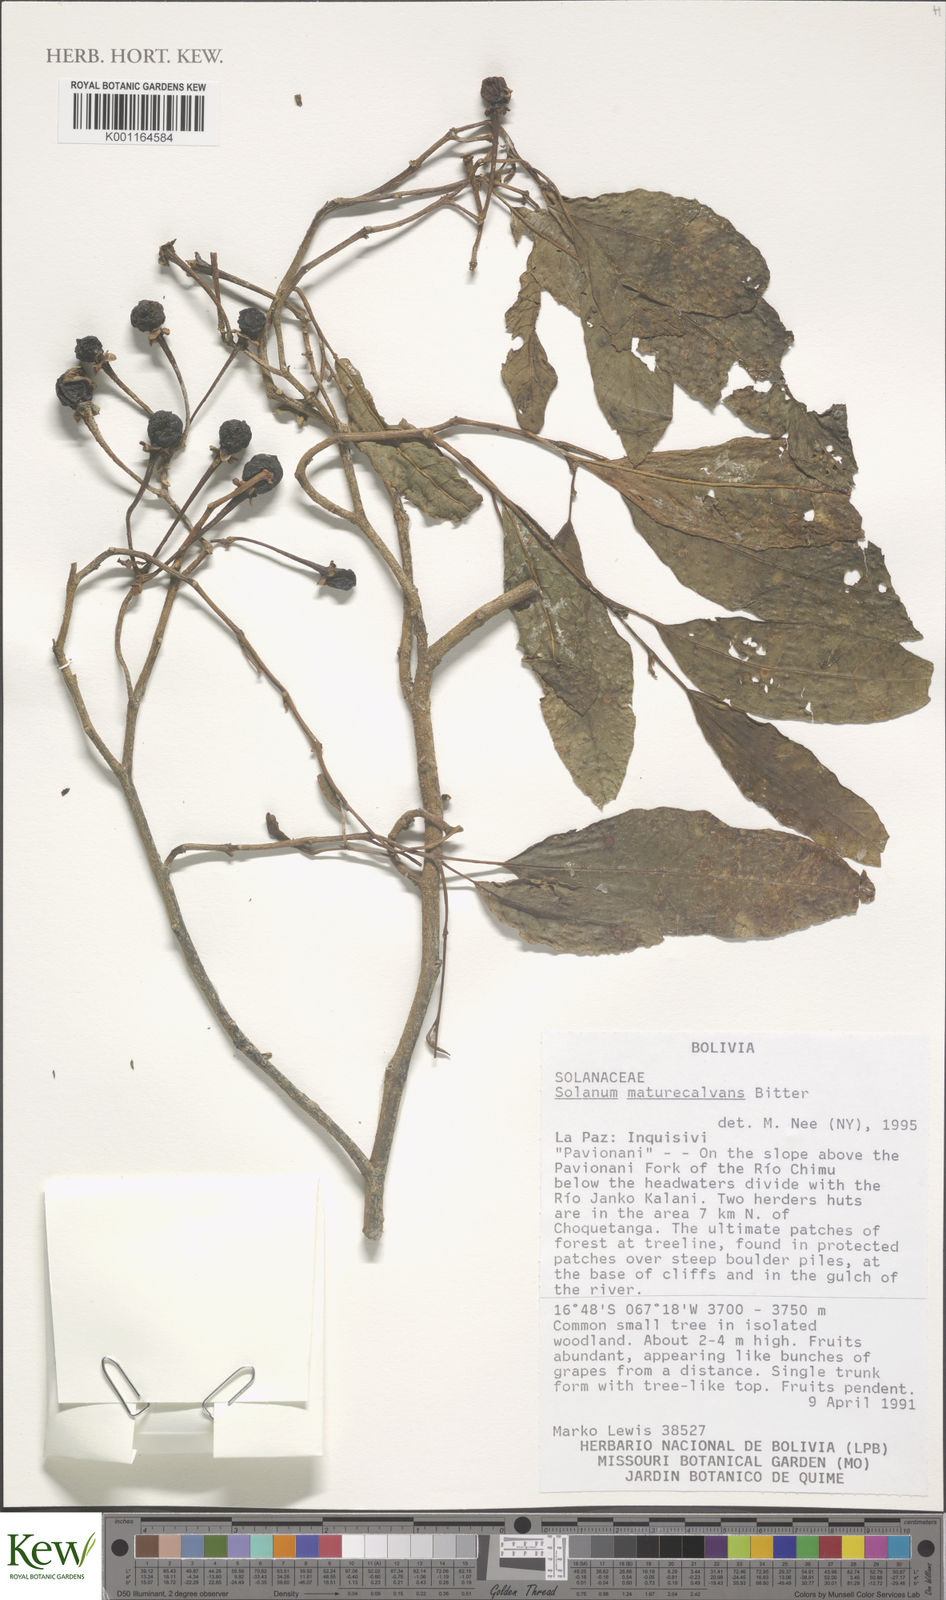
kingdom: Plantae
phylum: Tracheophyta
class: Magnoliopsida
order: Solanales
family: Solanaceae
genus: Solanum
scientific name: Solanum maturecalvans
